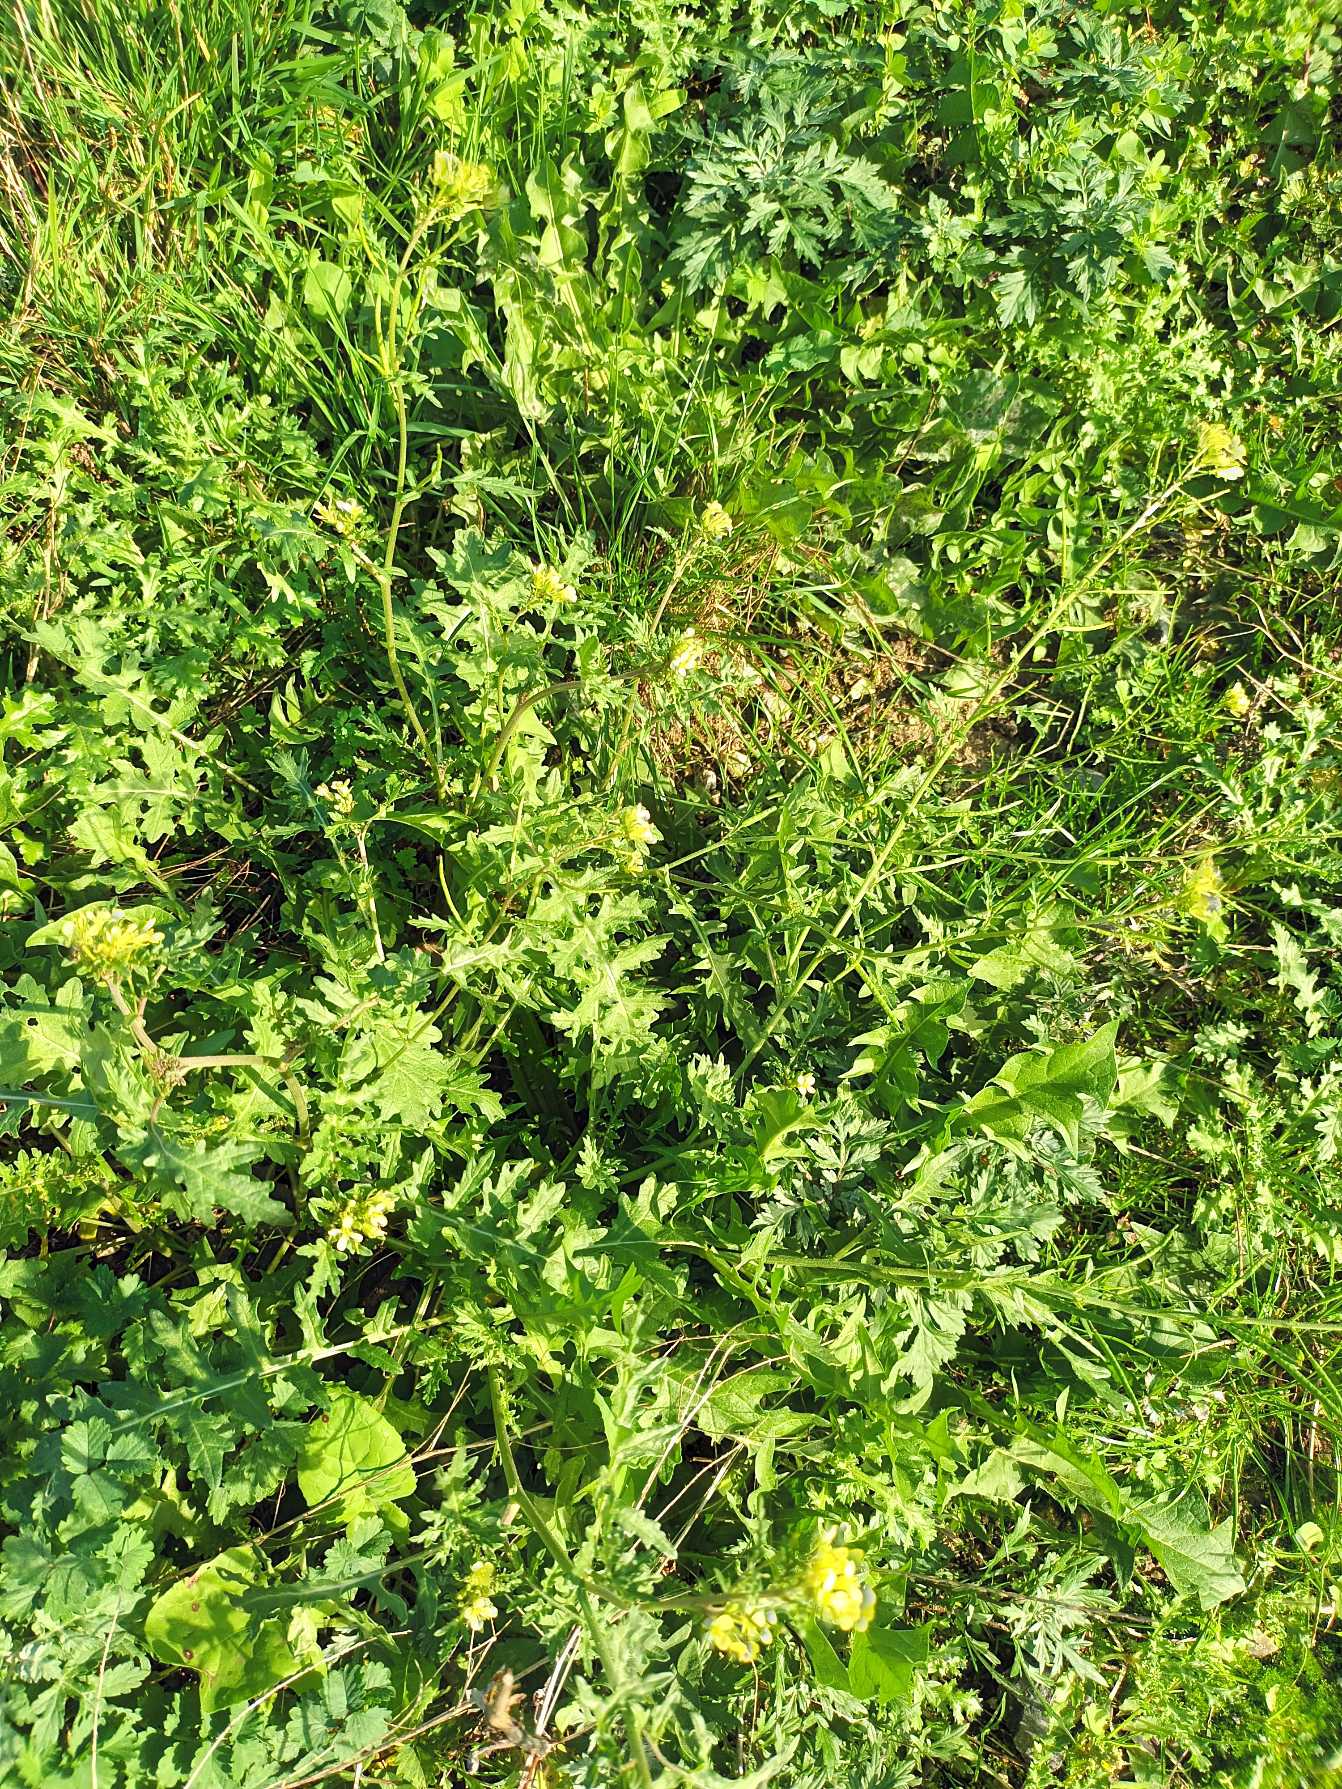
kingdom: Plantae
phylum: Tracheophyta
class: Magnoliopsida
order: Brassicales
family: Brassicaceae
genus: Erucastrum
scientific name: Erucastrum gallicum
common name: Svinesennep
